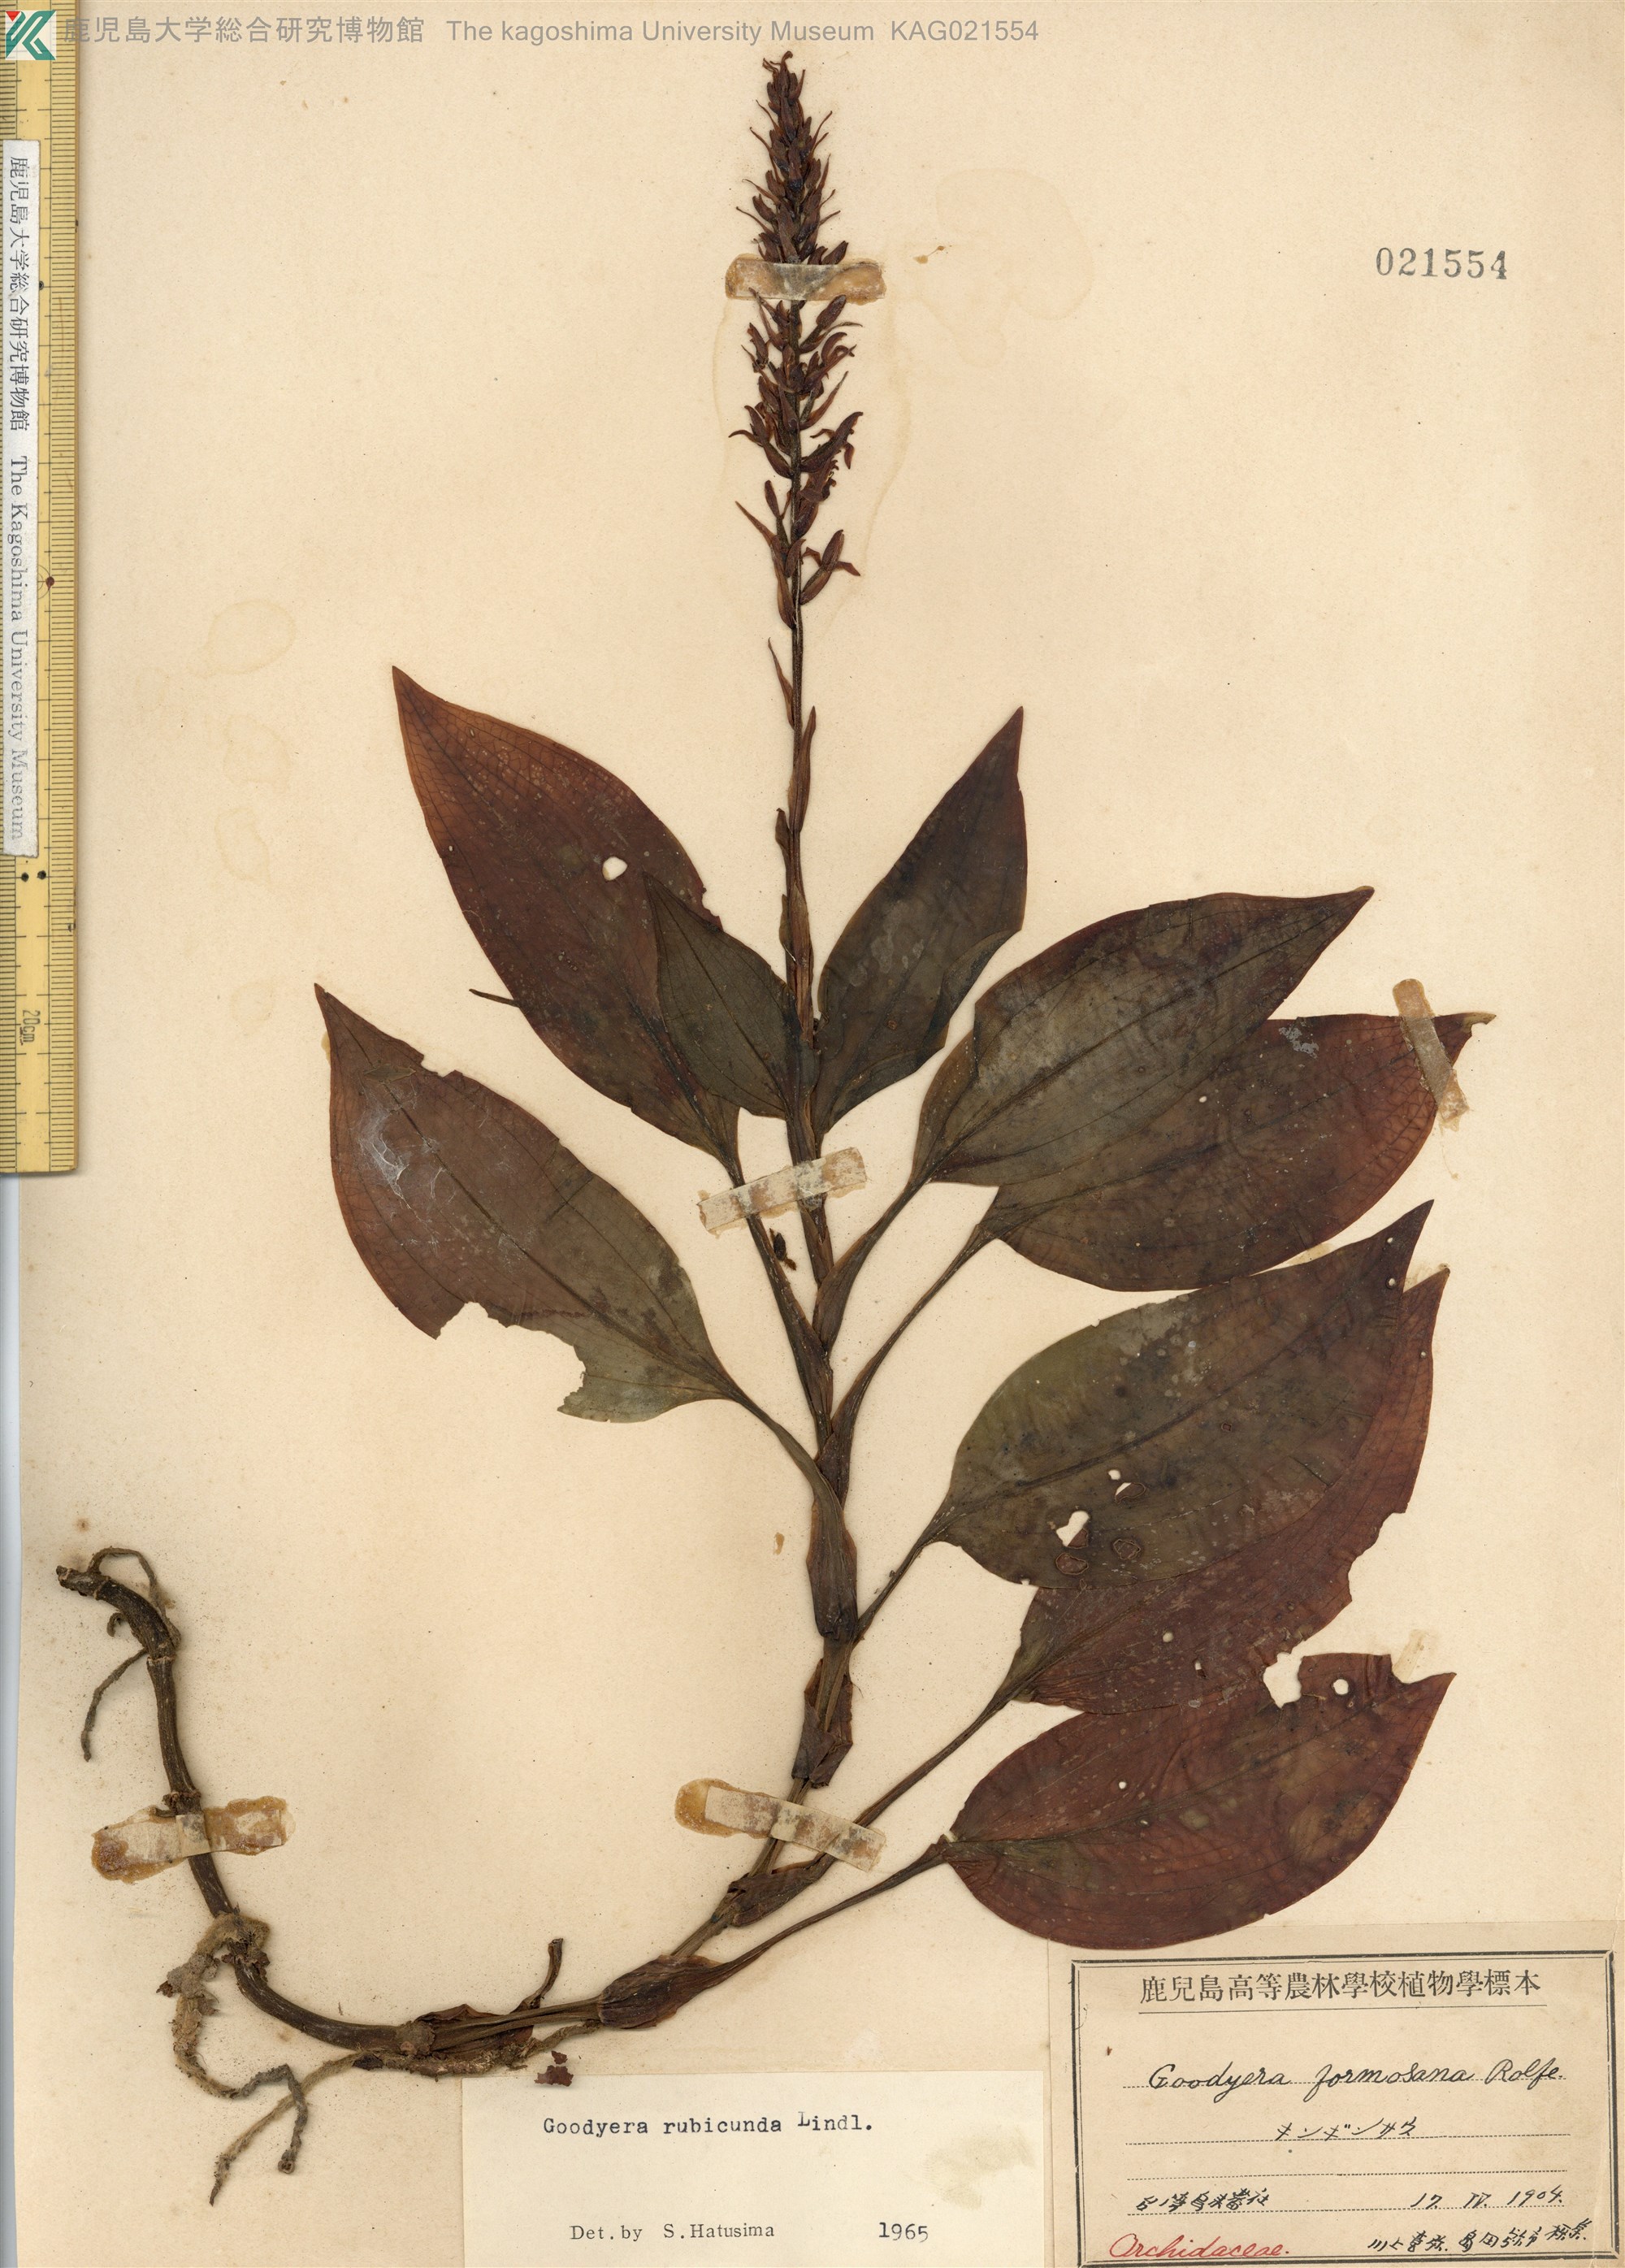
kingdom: Plantae
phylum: Tracheophyta
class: Liliopsida
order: Asparagales
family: Orchidaceae
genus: Goodyera
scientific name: Goodyera rubicunda
